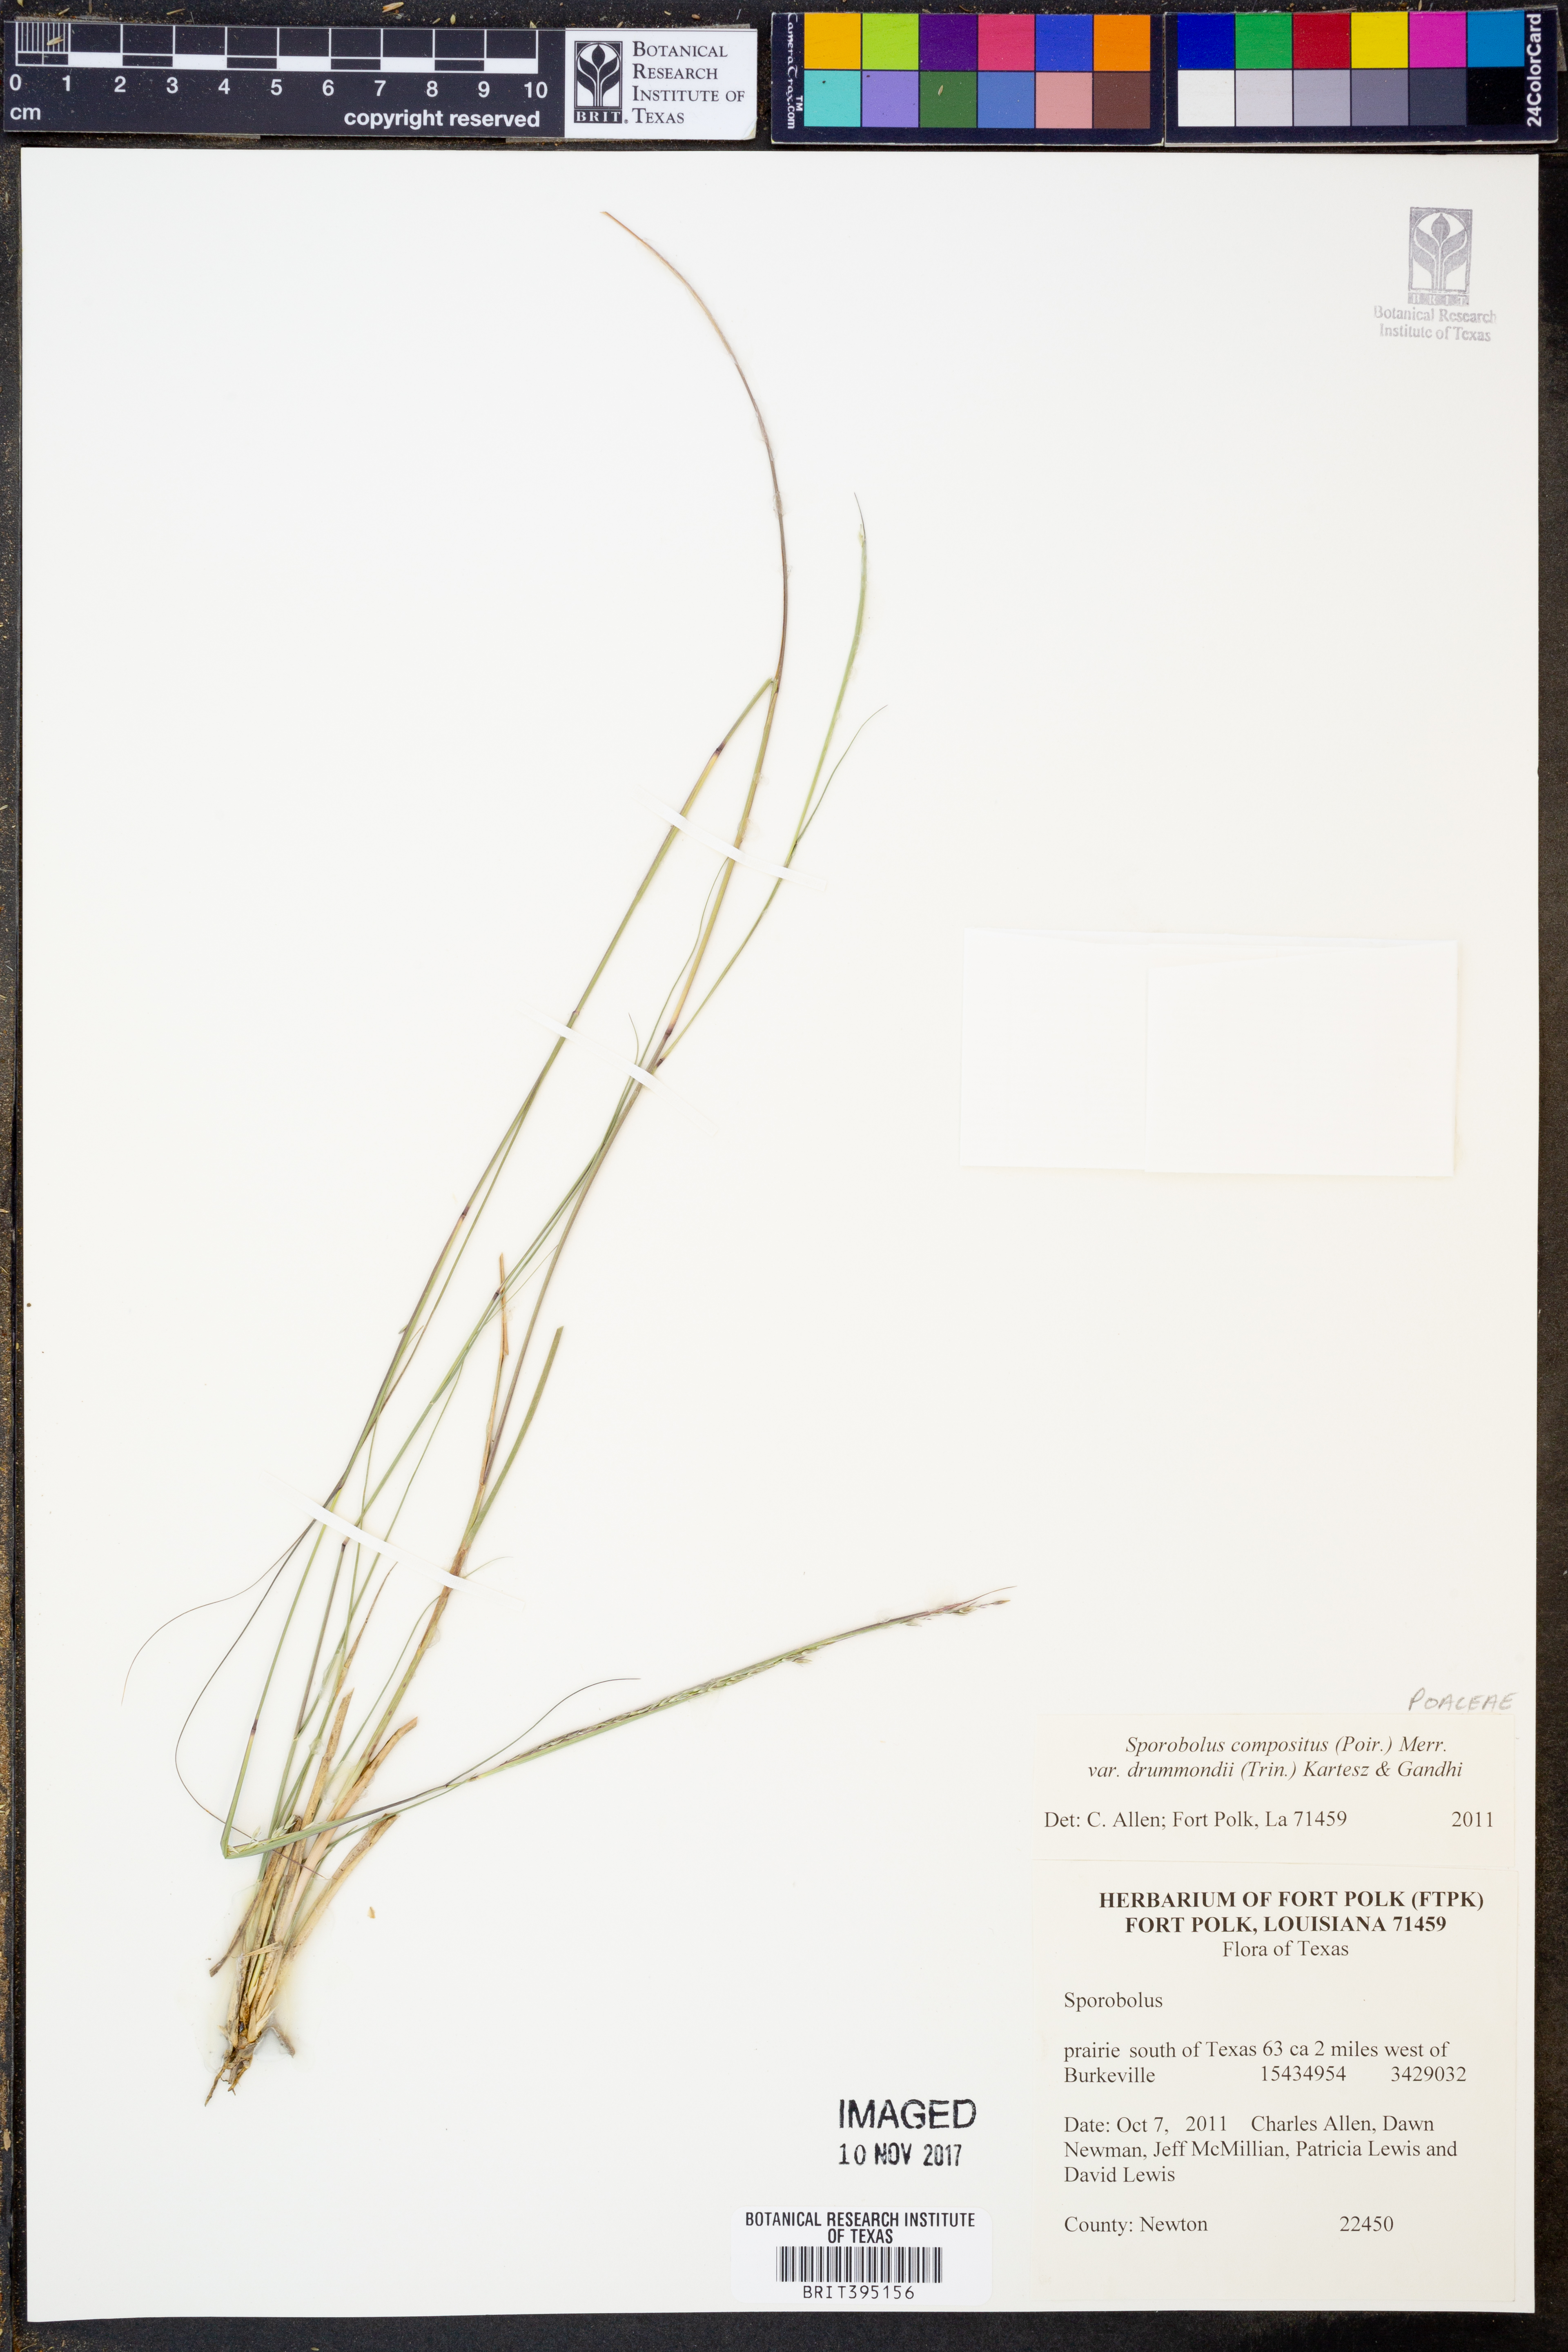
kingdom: Plantae
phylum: Tracheophyta
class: Liliopsida
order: Poales
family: Poaceae
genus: Sporobolus
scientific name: Sporobolus compositus
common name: Rough dropseed
